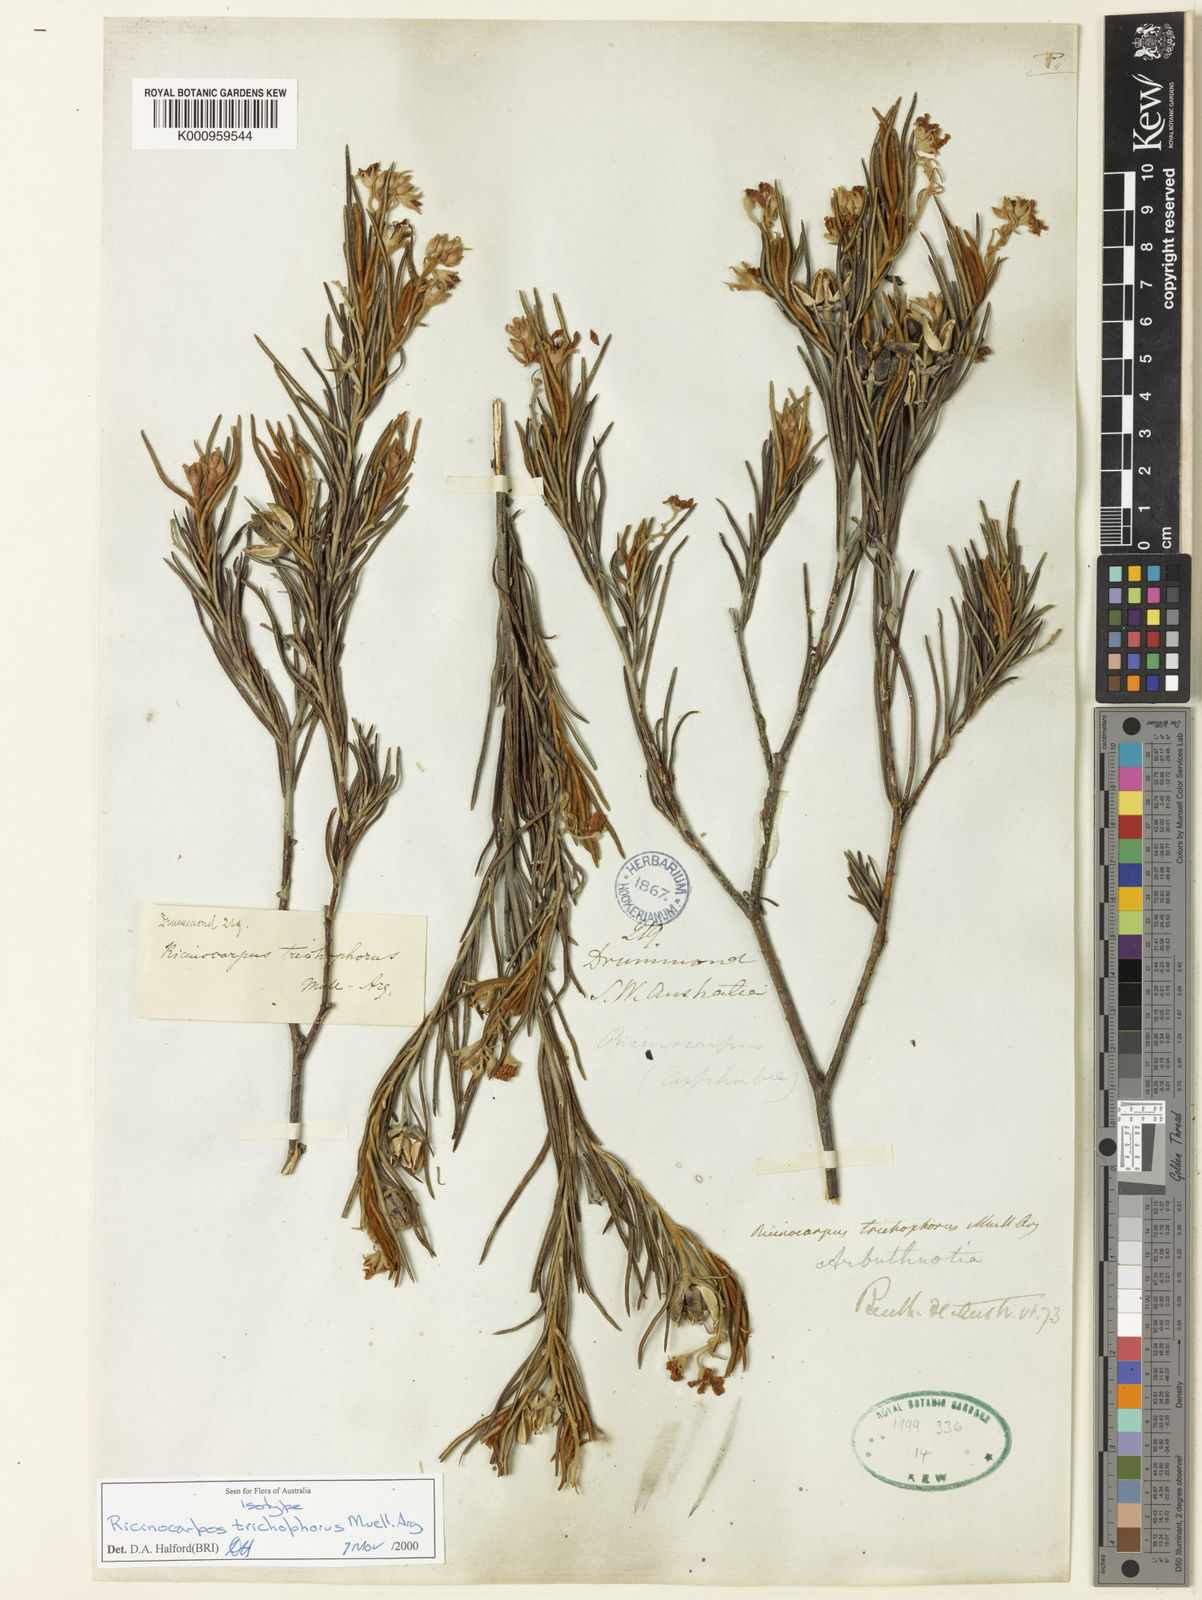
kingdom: Plantae
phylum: Tracheophyta
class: Magnoliopsida
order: Malpighiales
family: Euphorbiaceae
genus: Ricinocarpos
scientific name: Ricinocarpos
